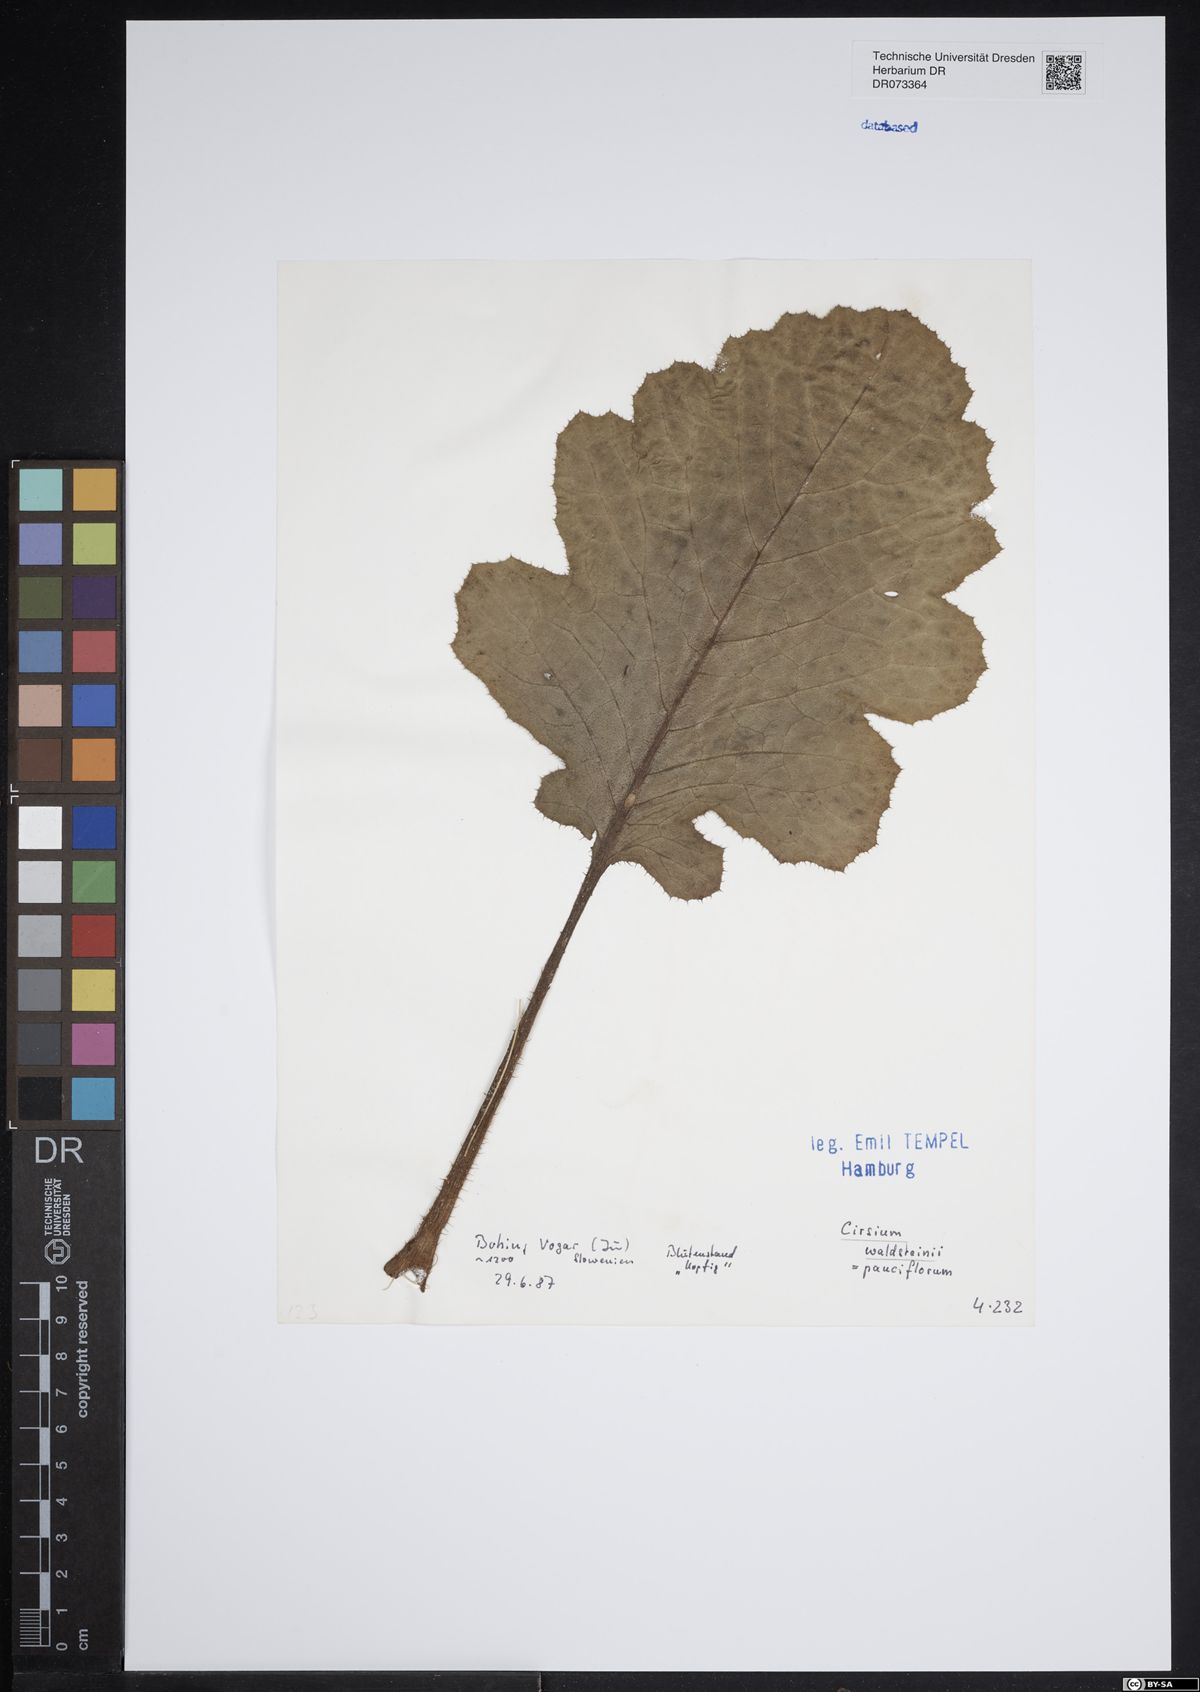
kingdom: Plantae
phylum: Tracheophyta
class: Magnoliopsida
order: Asterales
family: Asteraceae
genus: Cirsium
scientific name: Cirsium waldsteinii
